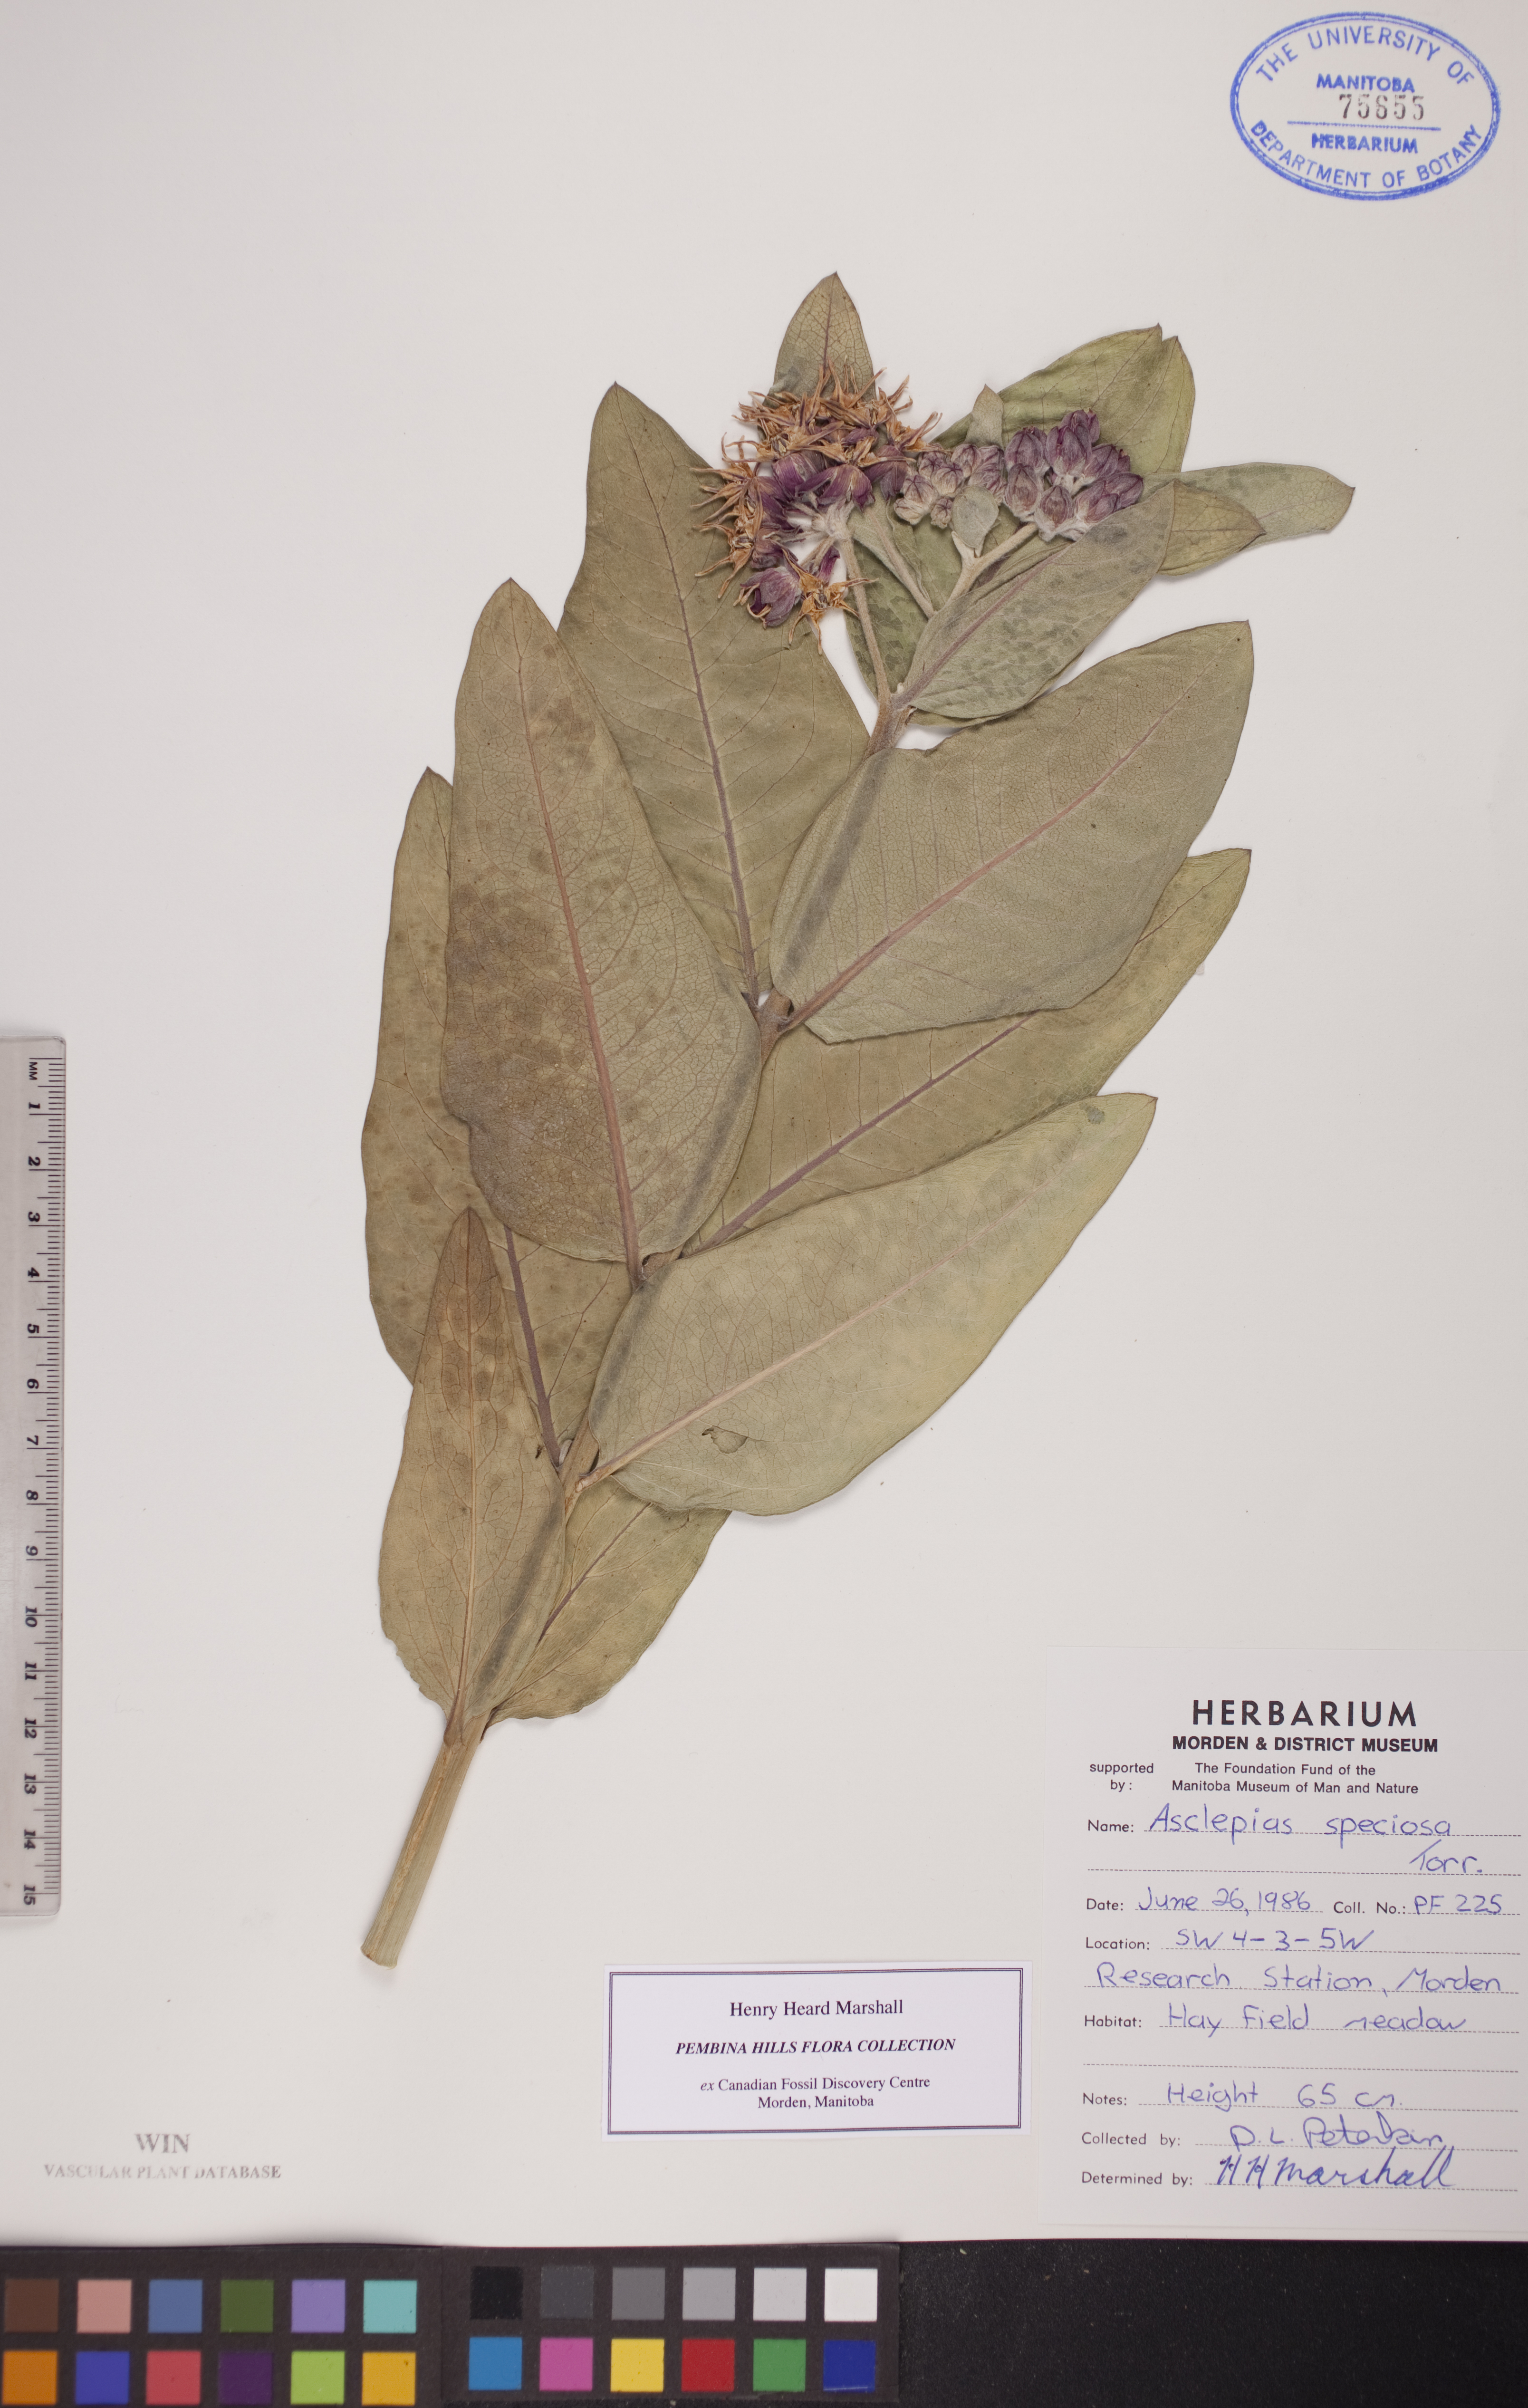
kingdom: Plantae
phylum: Tracheophyta
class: Magnoliopsida
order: Gentianales
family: Apocynaceae
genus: Asclepias
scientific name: Asclepias speciosa
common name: Showy milkweed
